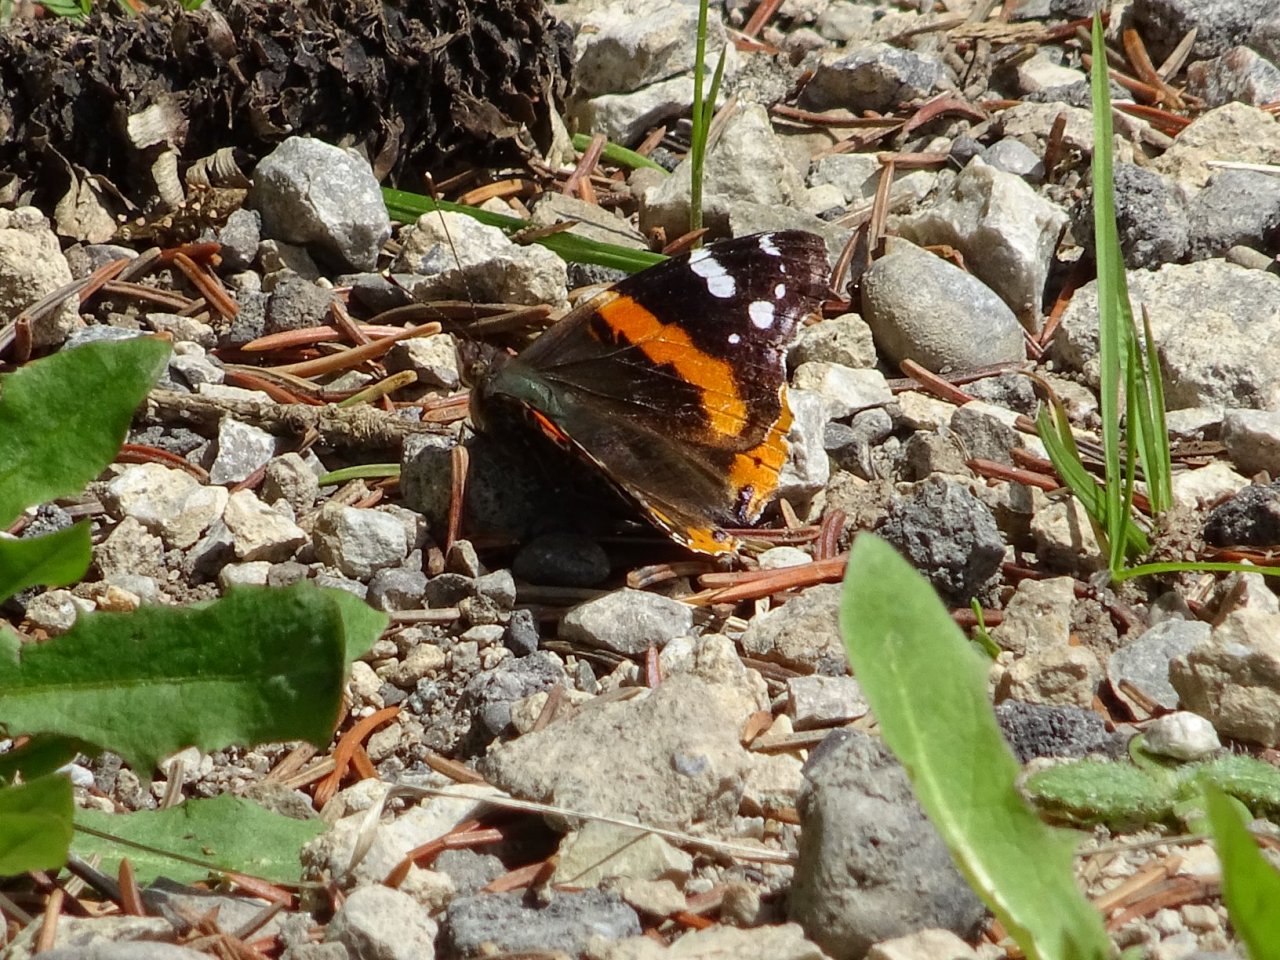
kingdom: Animalia
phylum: Arthropoda
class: Insecta
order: Lepidoptera
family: Nymphalidae
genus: Vanessa
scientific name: Vanessa atalanta
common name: Red Admiral
